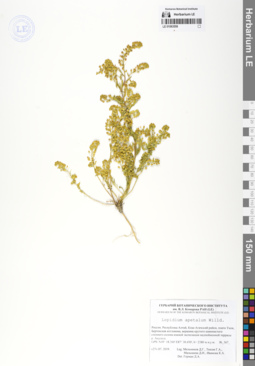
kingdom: Plantae
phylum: Tracheophyta
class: Magnoliopsida
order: Brassicales
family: Brassicaceae
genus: Lepidium
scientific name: Lepidium apetalum
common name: Pepperweed
